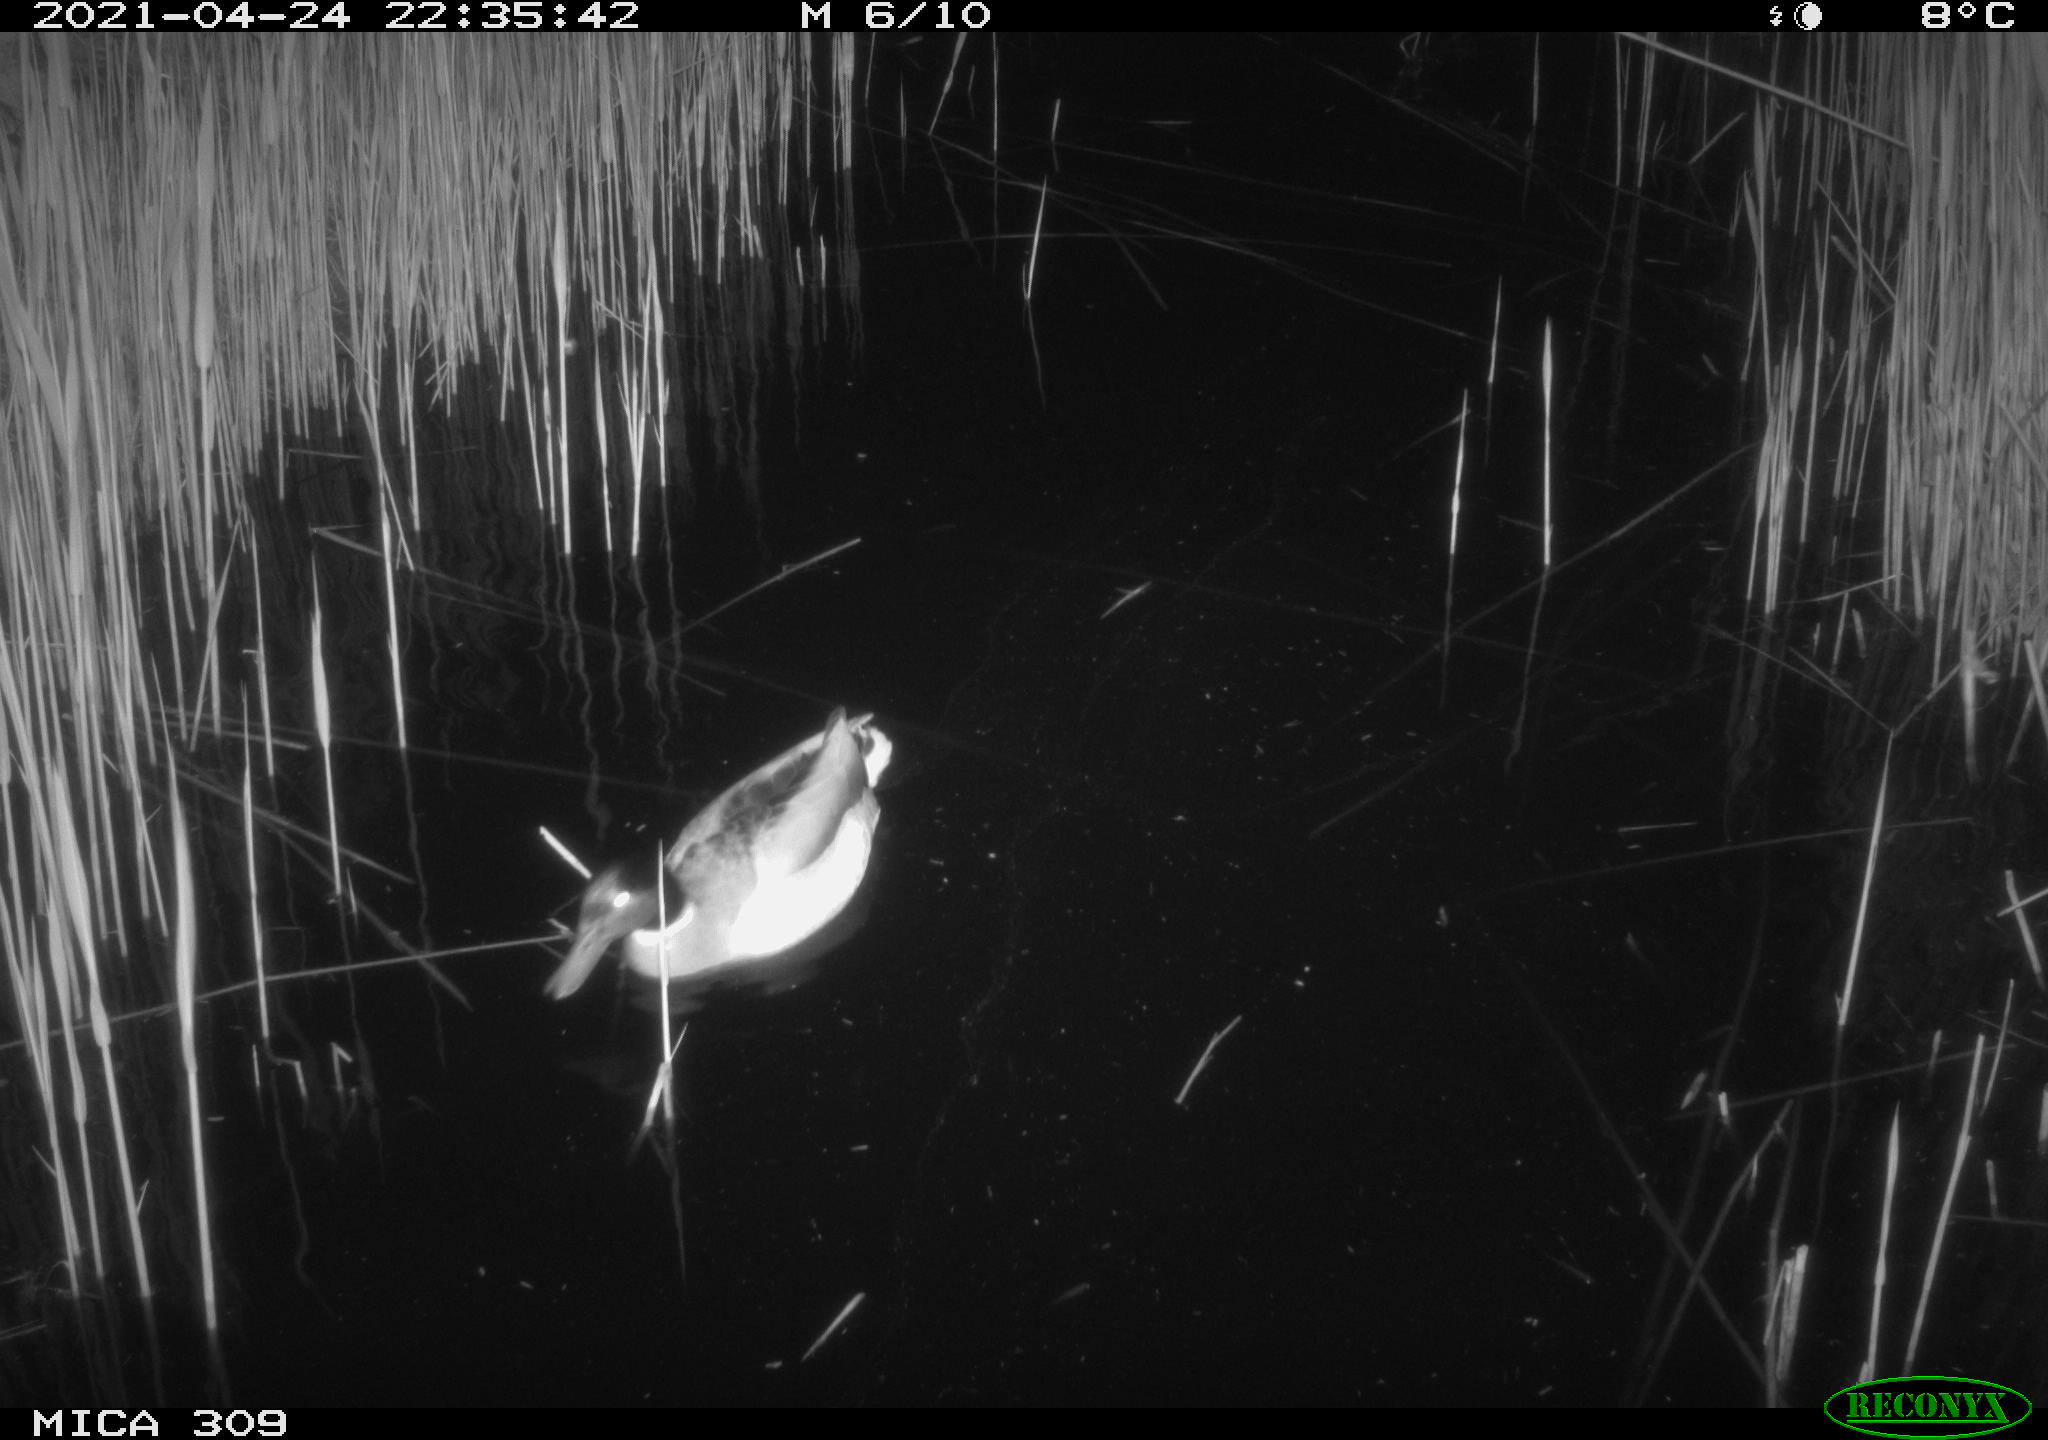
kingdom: Animalia
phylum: Chordata
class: Aves
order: Anseriformes
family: Anatidae
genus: Anas
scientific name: Anas platyrhynchos
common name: Mallard
